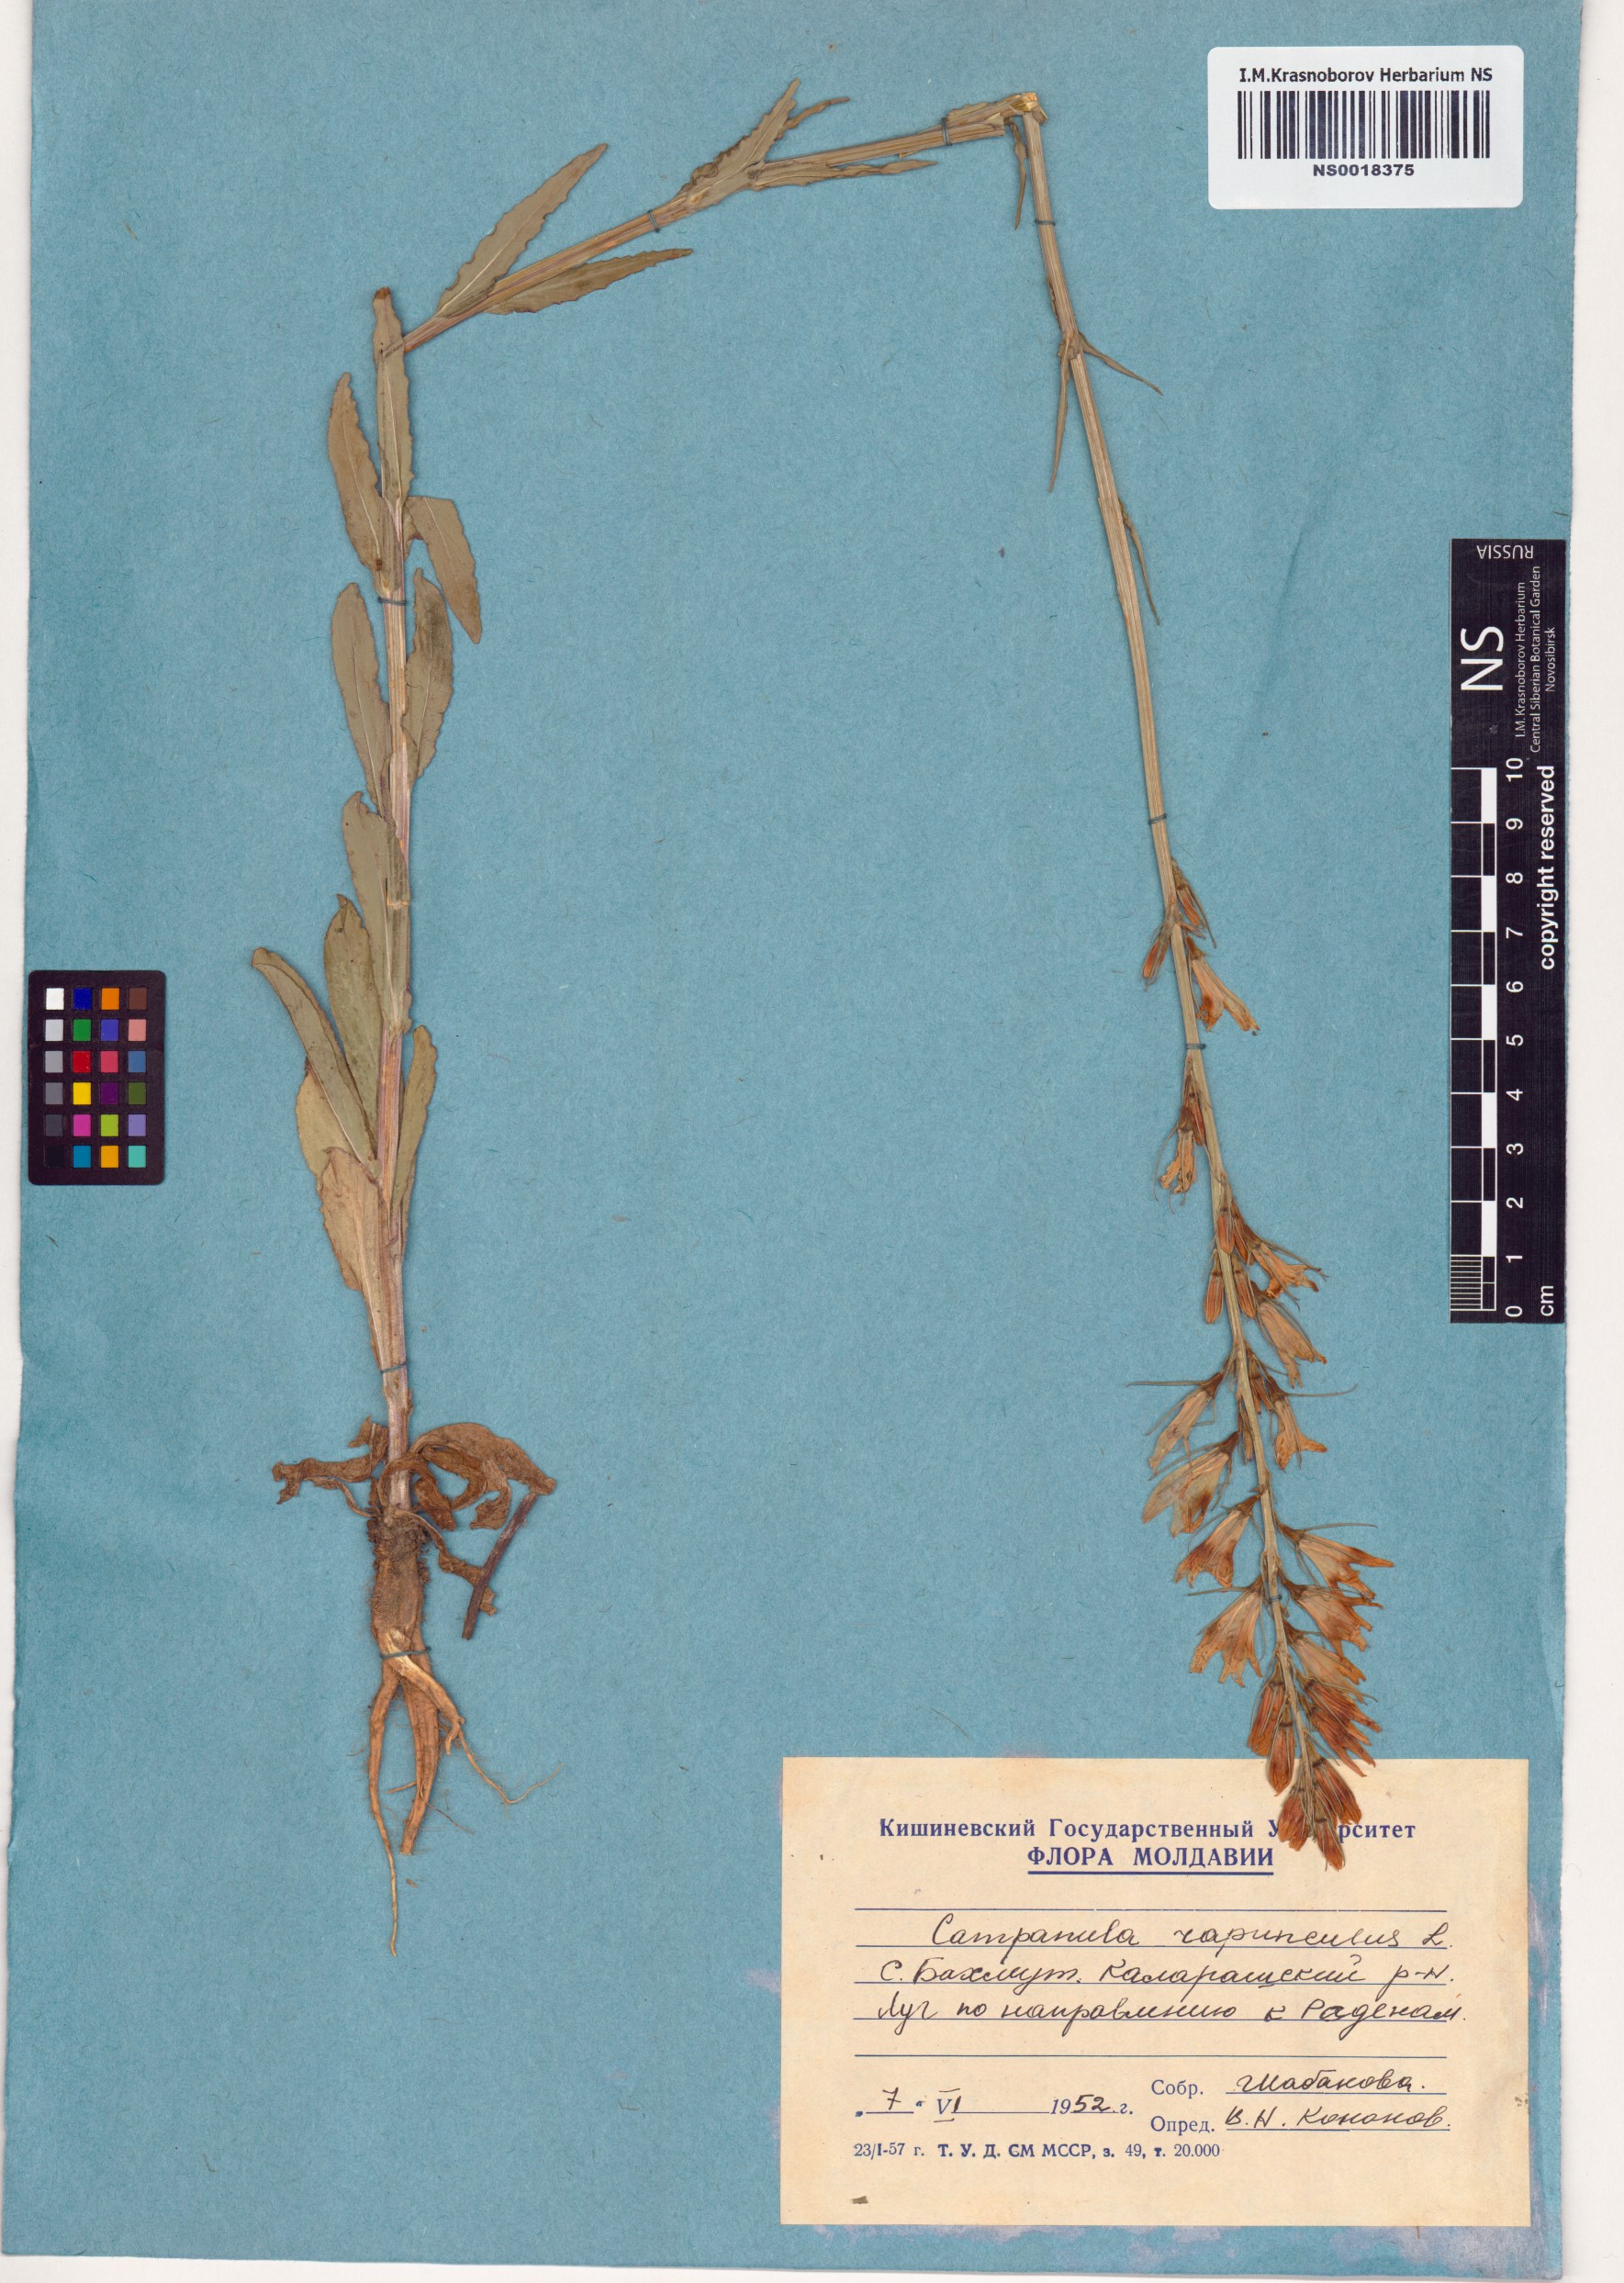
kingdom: Plantae
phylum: Tracheophyta
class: Magnoliopsida
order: Asterales
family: Campanulaceae
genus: Campanula
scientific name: Campanula rapunculus
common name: Rampion bellflower
